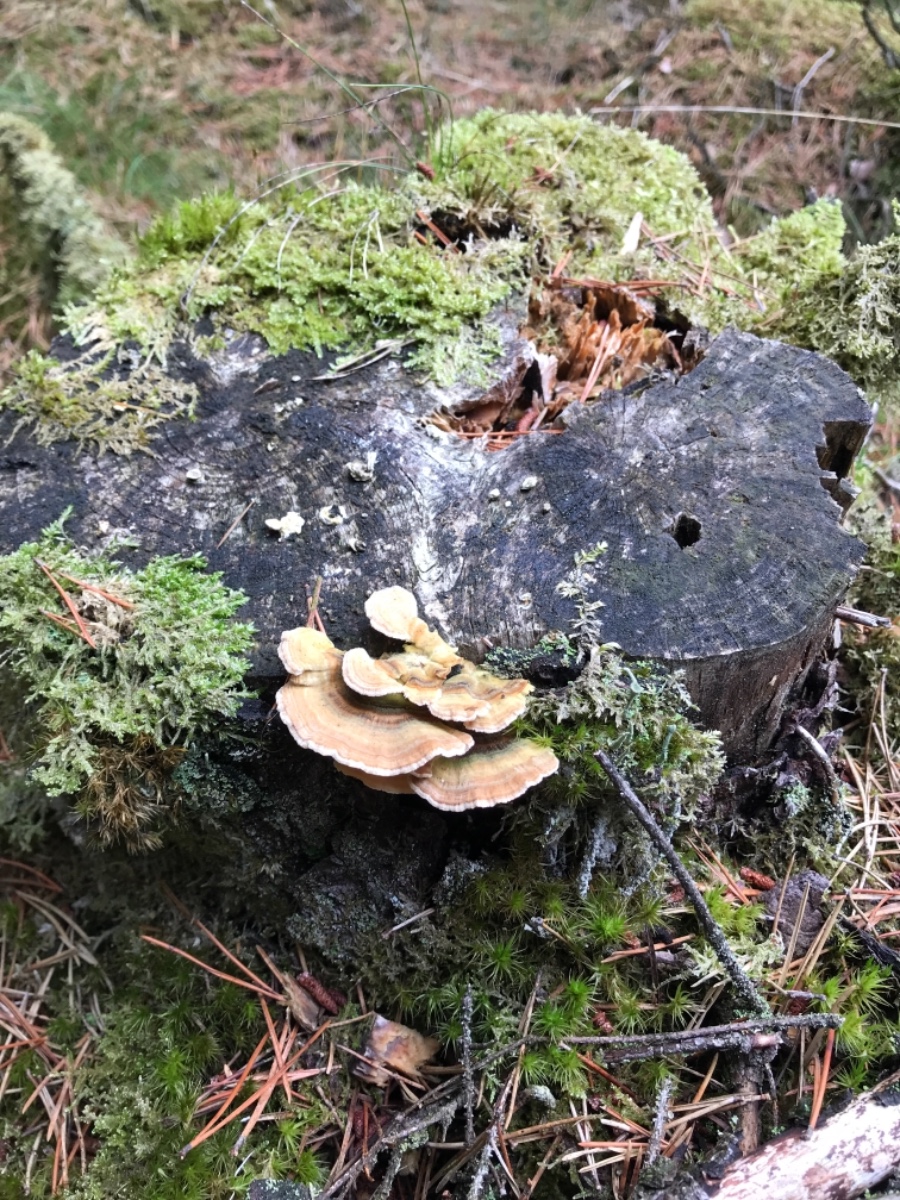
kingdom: Fungi
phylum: Basidiomycota
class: Agaricomycetes
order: Polyporales
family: Polyporaceae
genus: Trametes
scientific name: Trametes versicolor
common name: broget læderporesvamp
